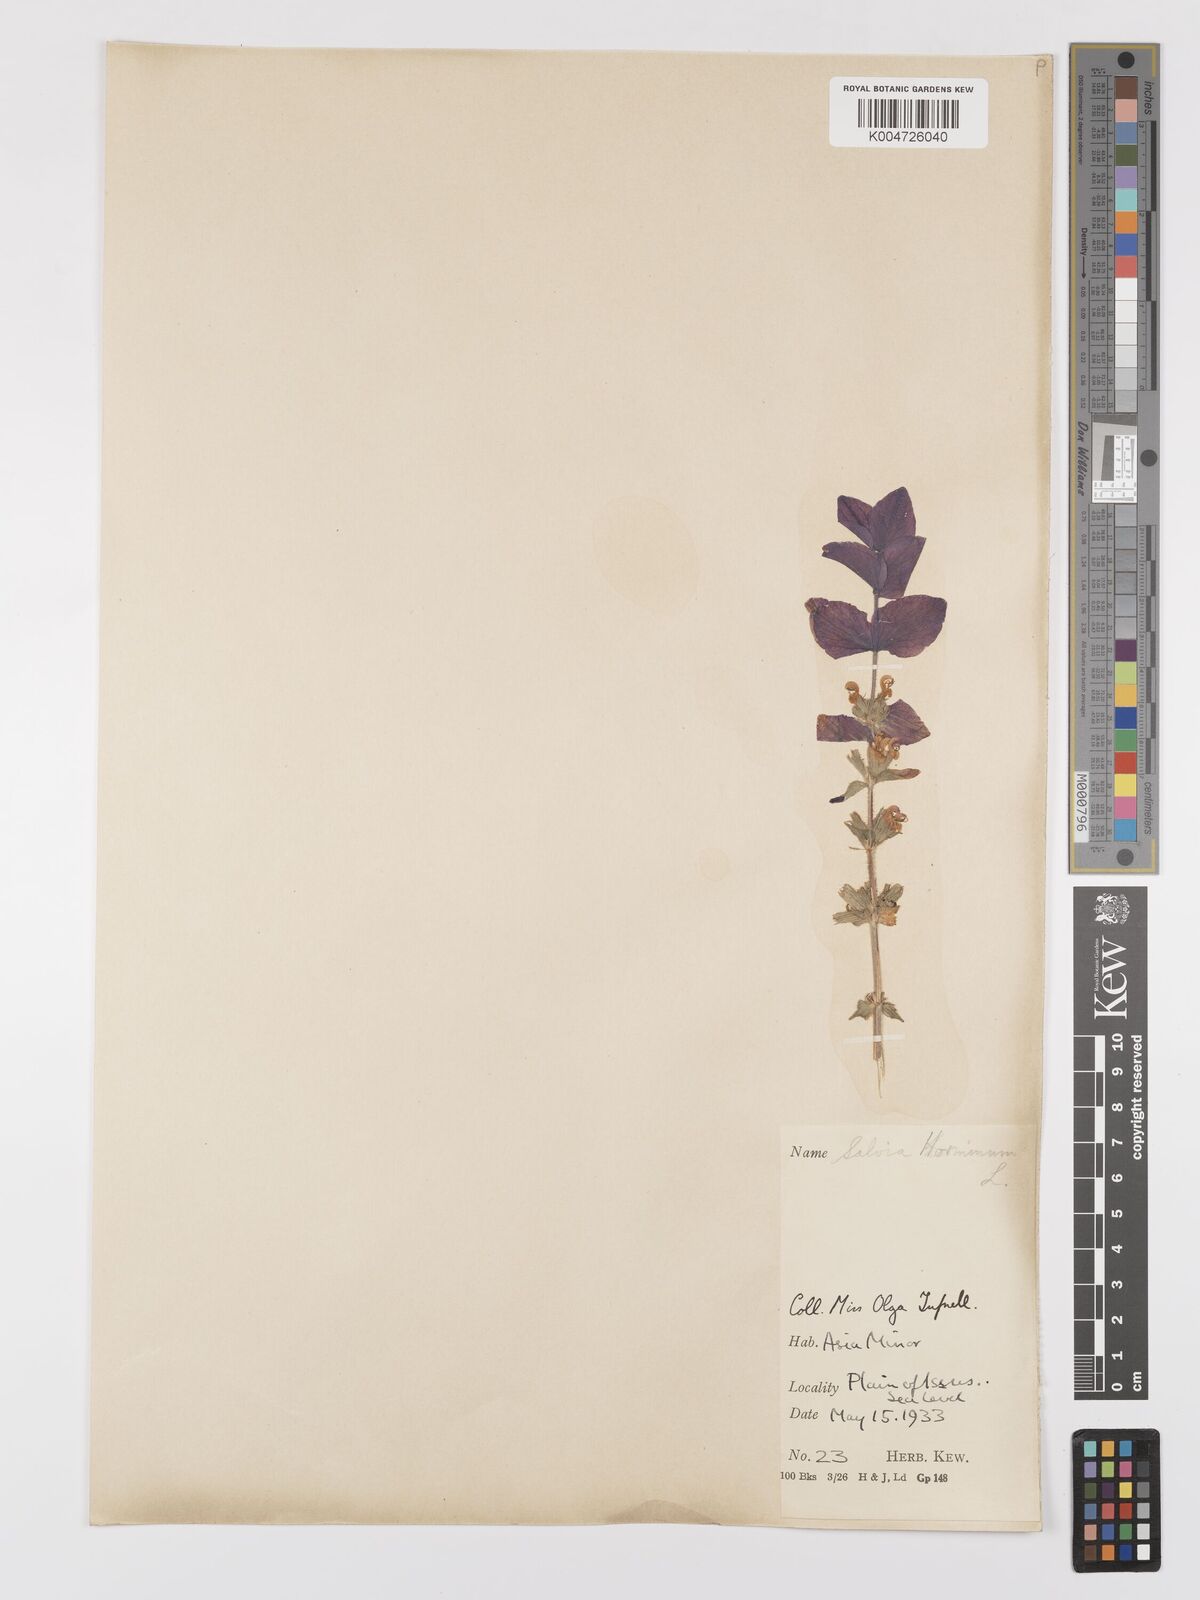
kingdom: Plantae
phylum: Tracheophyta
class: Magnoliopsida
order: Lamiales
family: Lamiaceae
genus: Salvia
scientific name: Salvia viridis
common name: Annual clary
